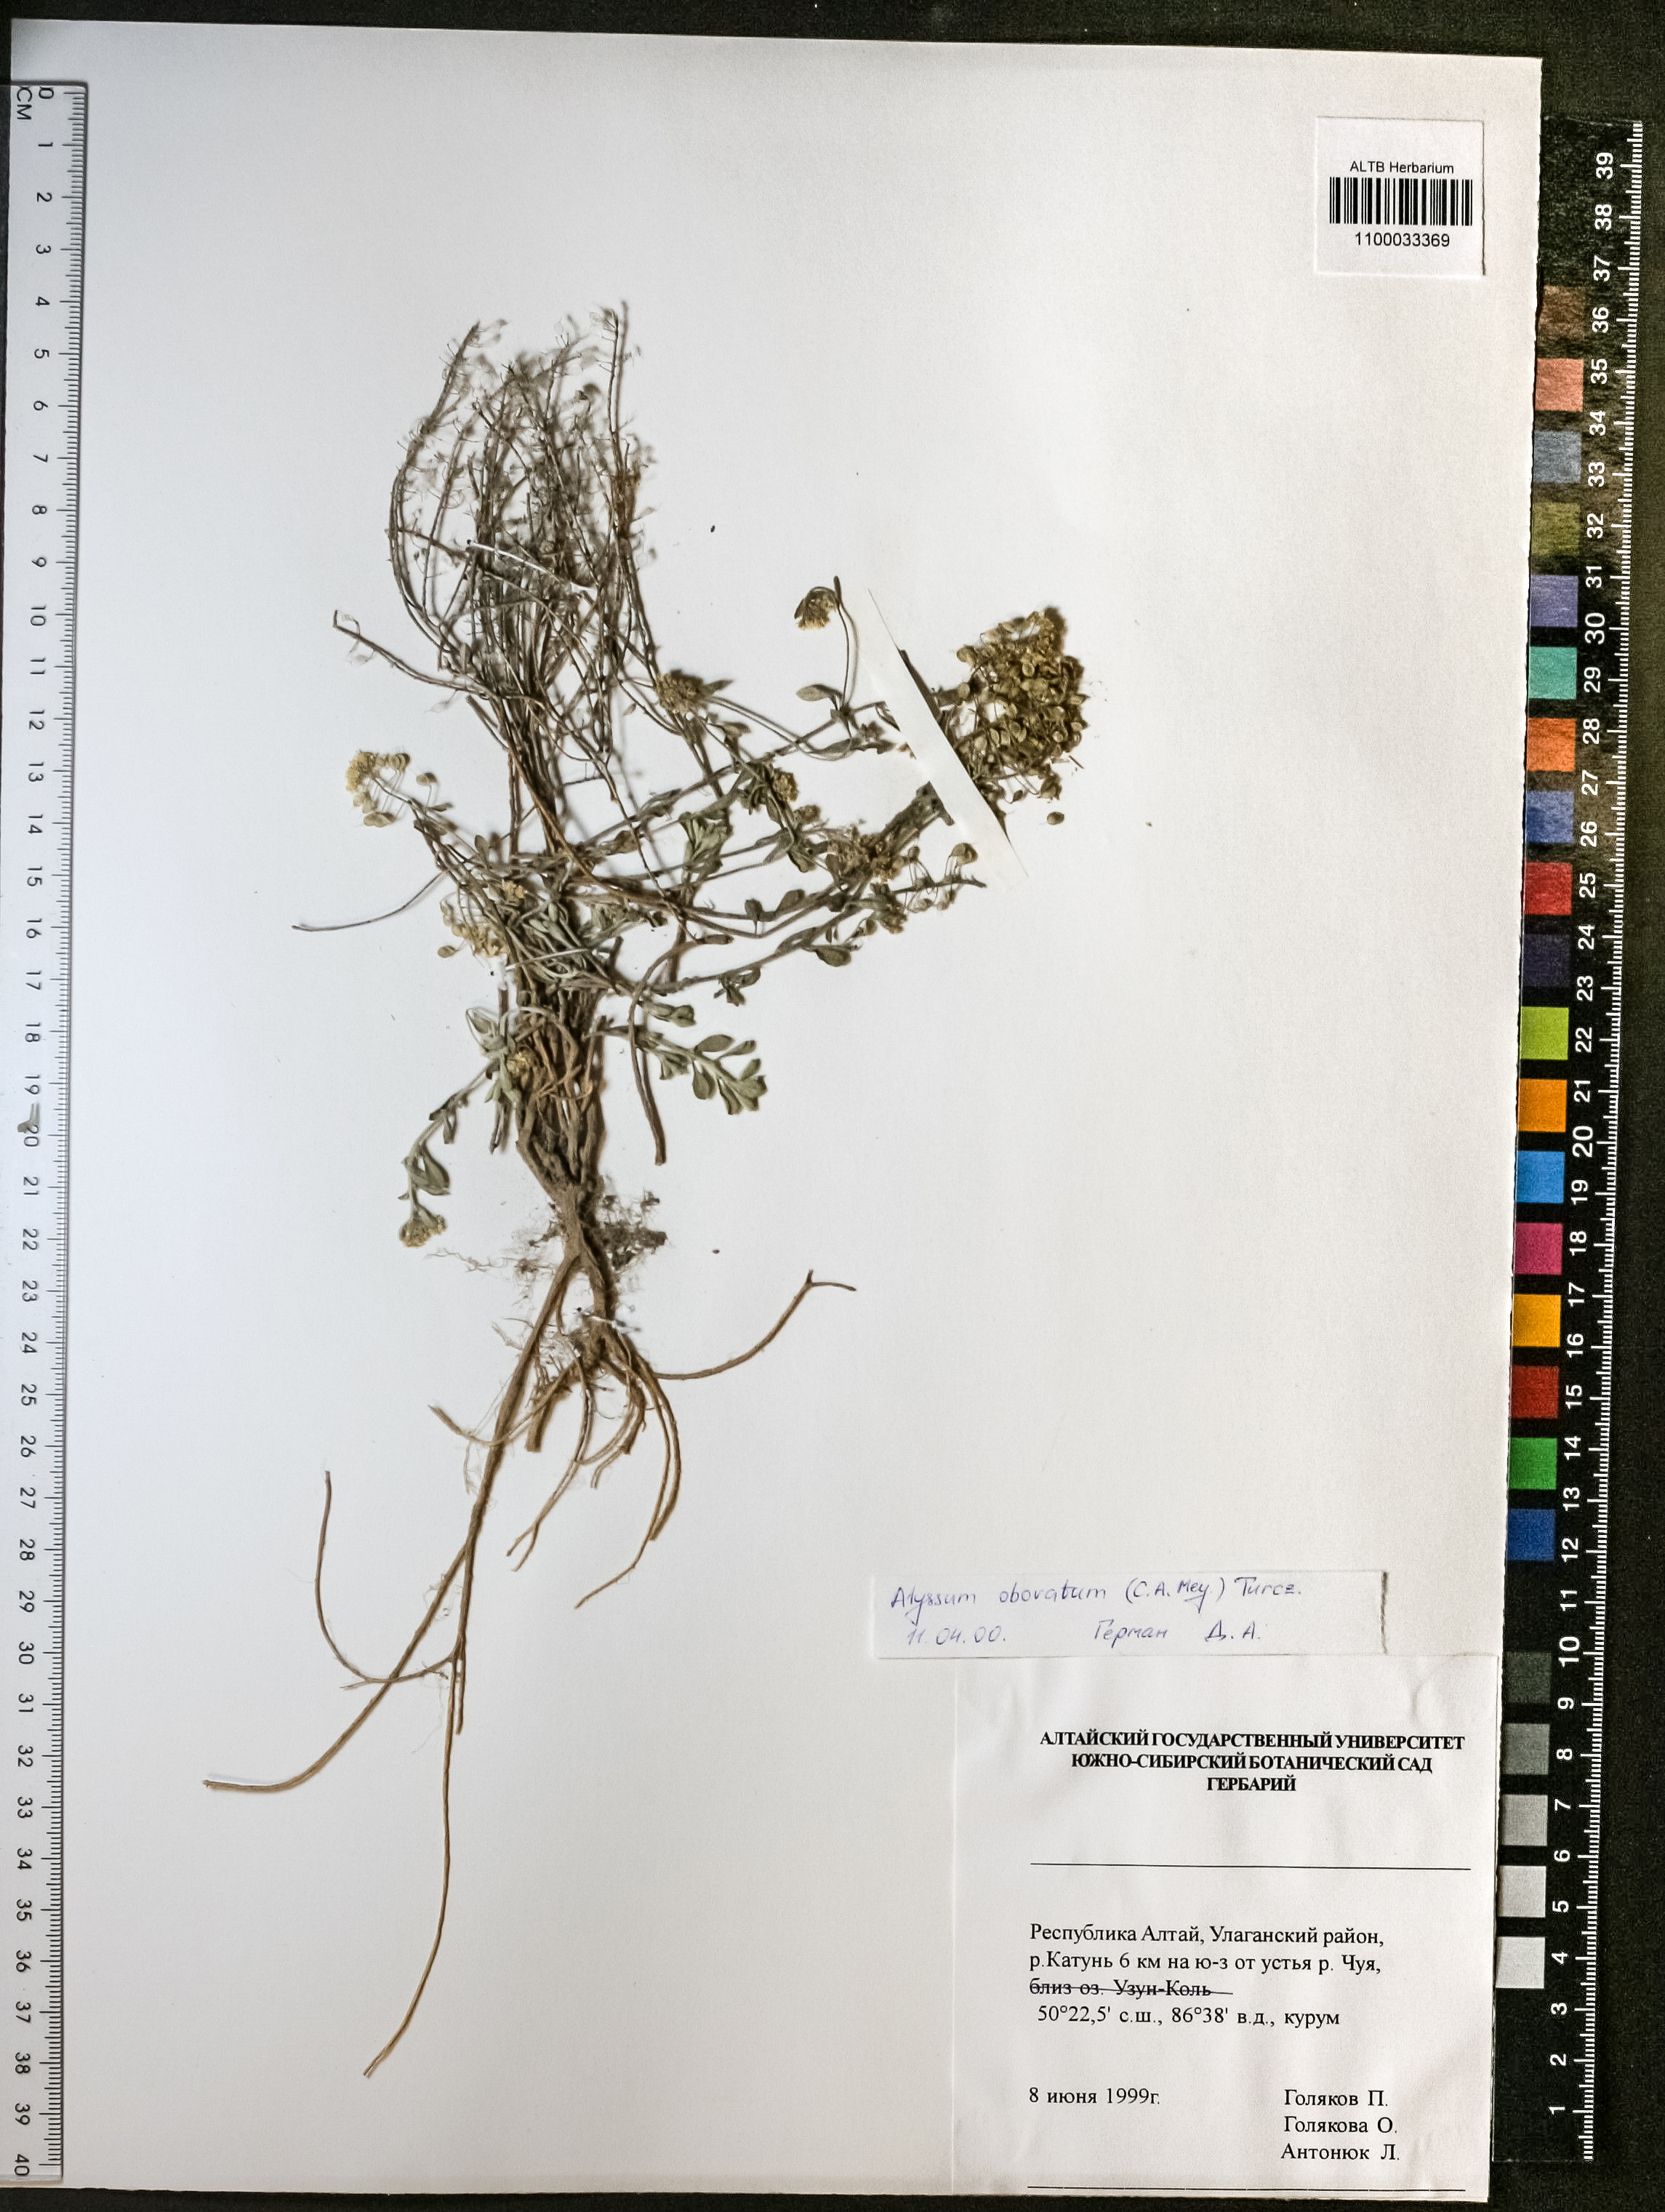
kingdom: Plantae
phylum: Tracheophyta
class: Magnoliopsida
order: Brassicales
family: Brassicaceae
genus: Odontarrhena
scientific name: Odontarrhena obovata
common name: American alyssum
